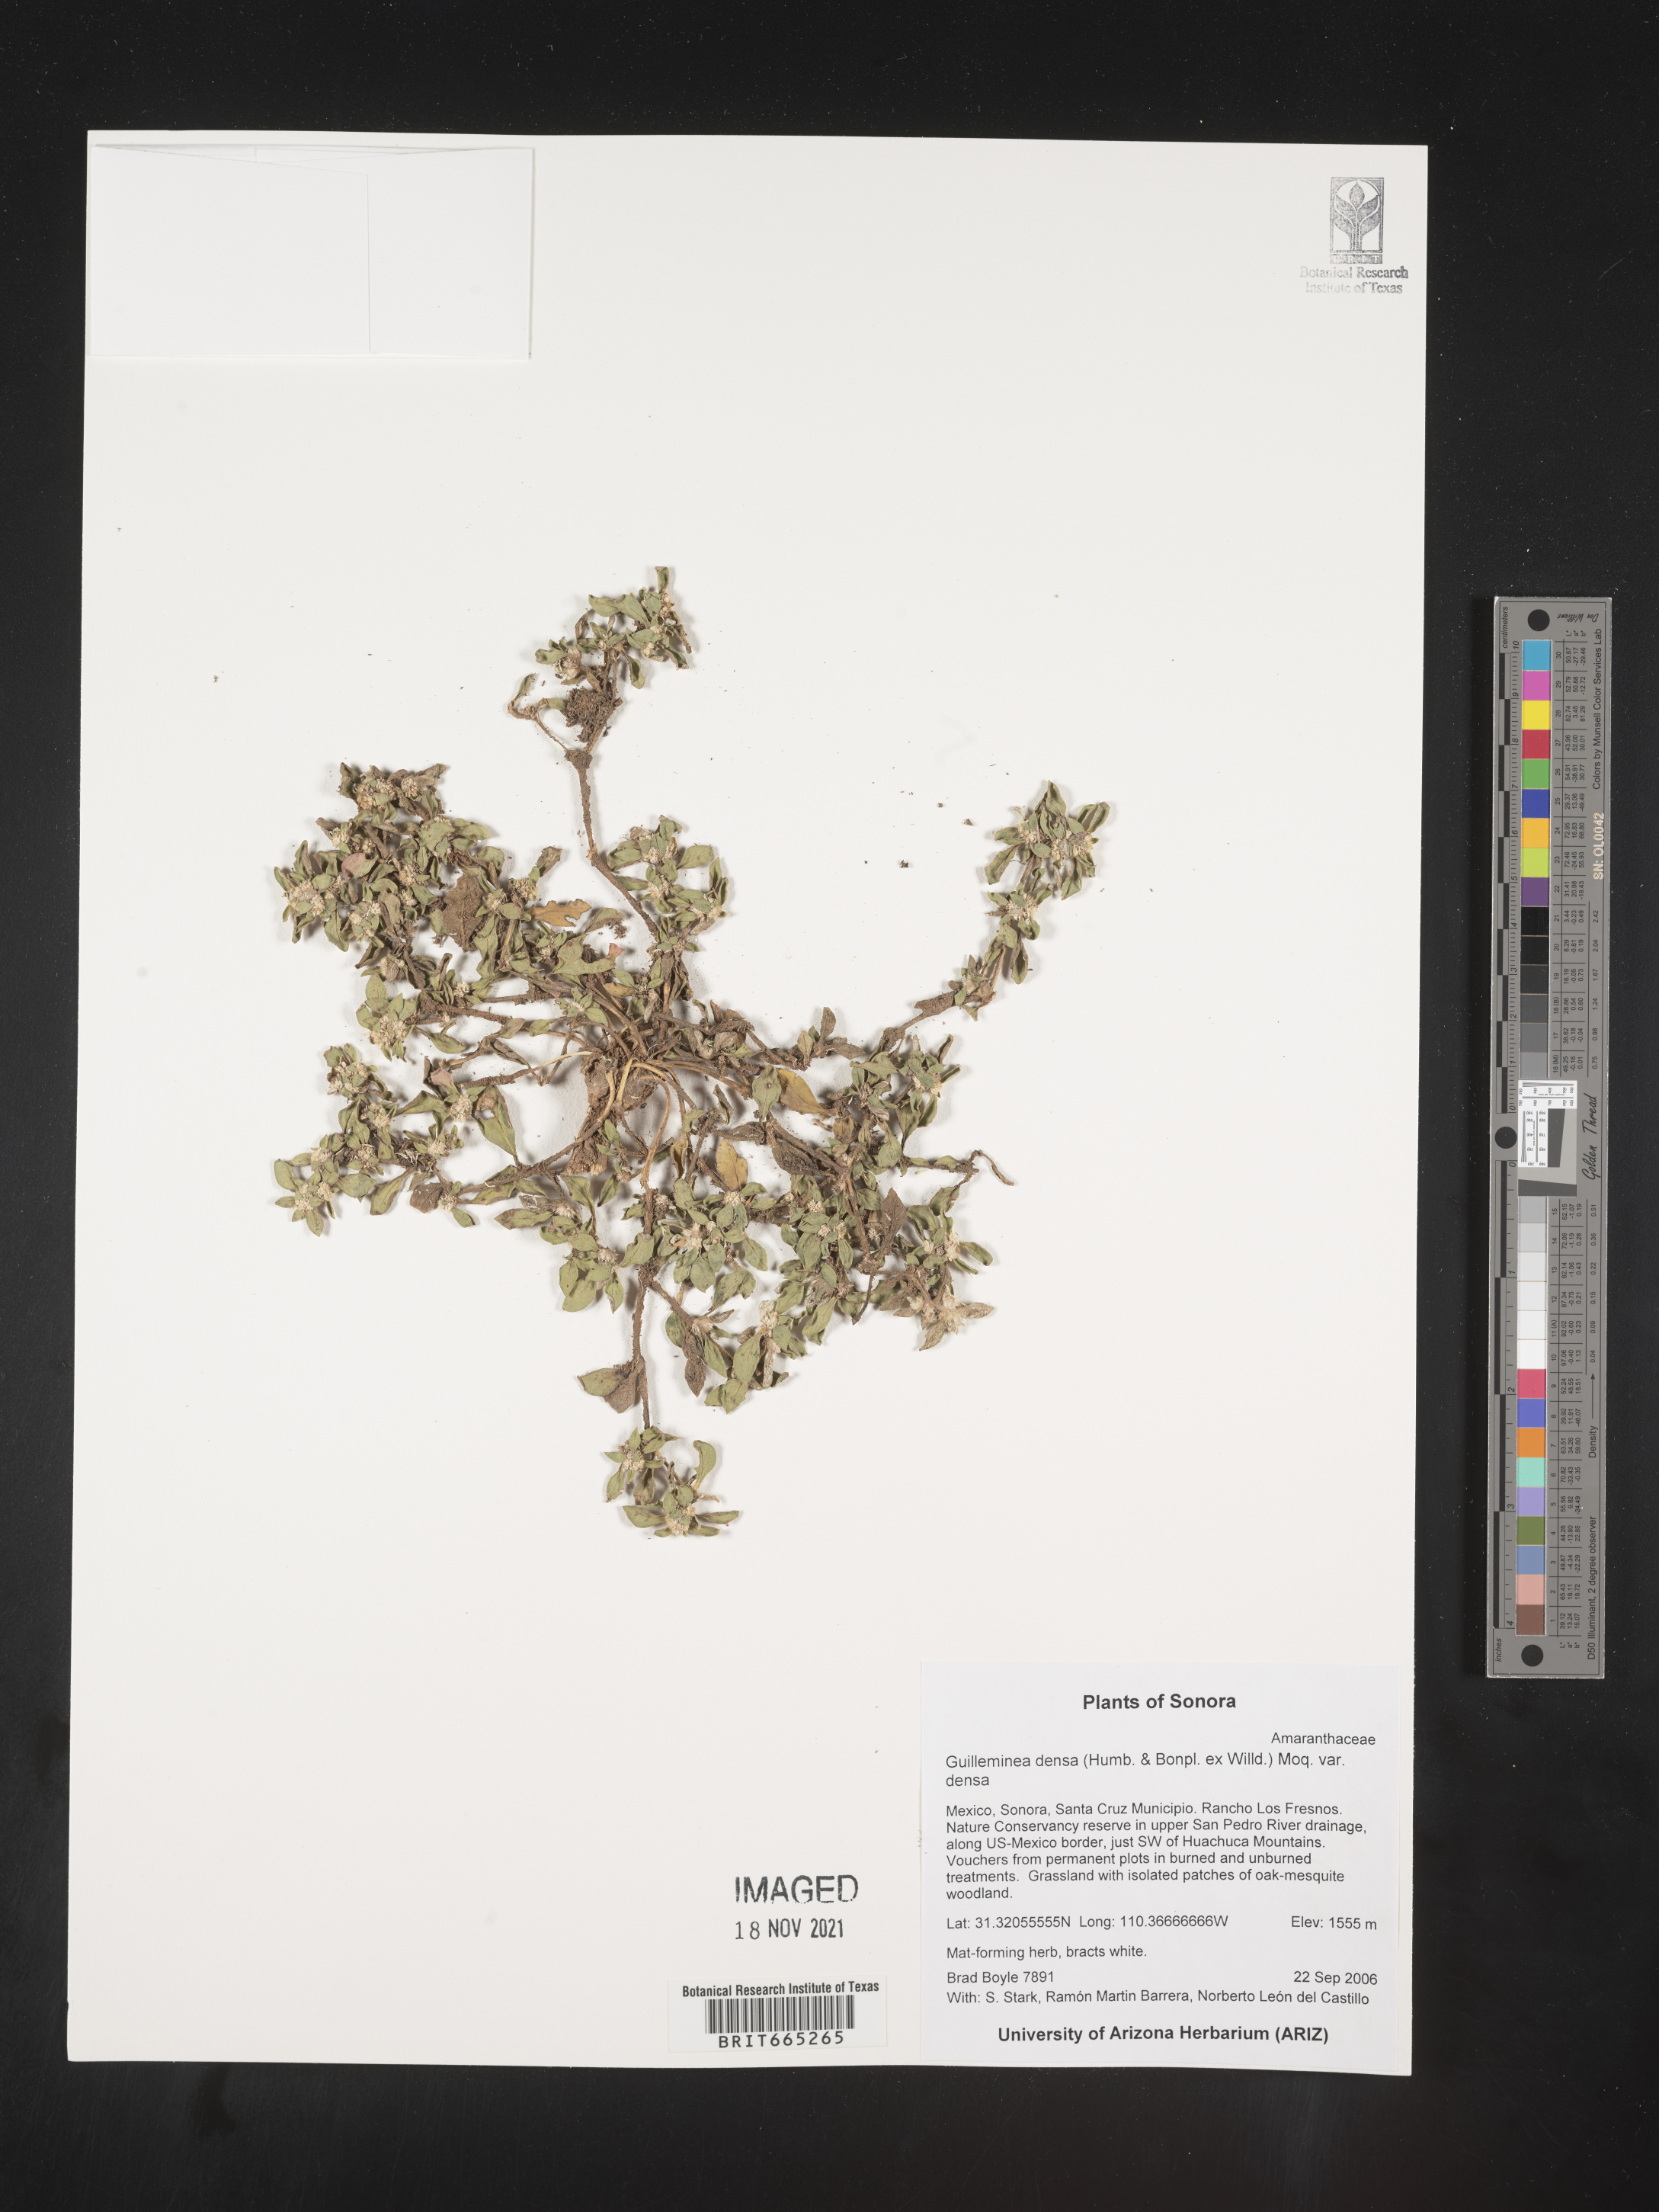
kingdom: Plantae
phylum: Tracheophyta
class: Magnoliopsida
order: Caryophyllales
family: Amaranthaceae
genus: Guilleminea
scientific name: Guilleminea densa
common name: Small matweed
